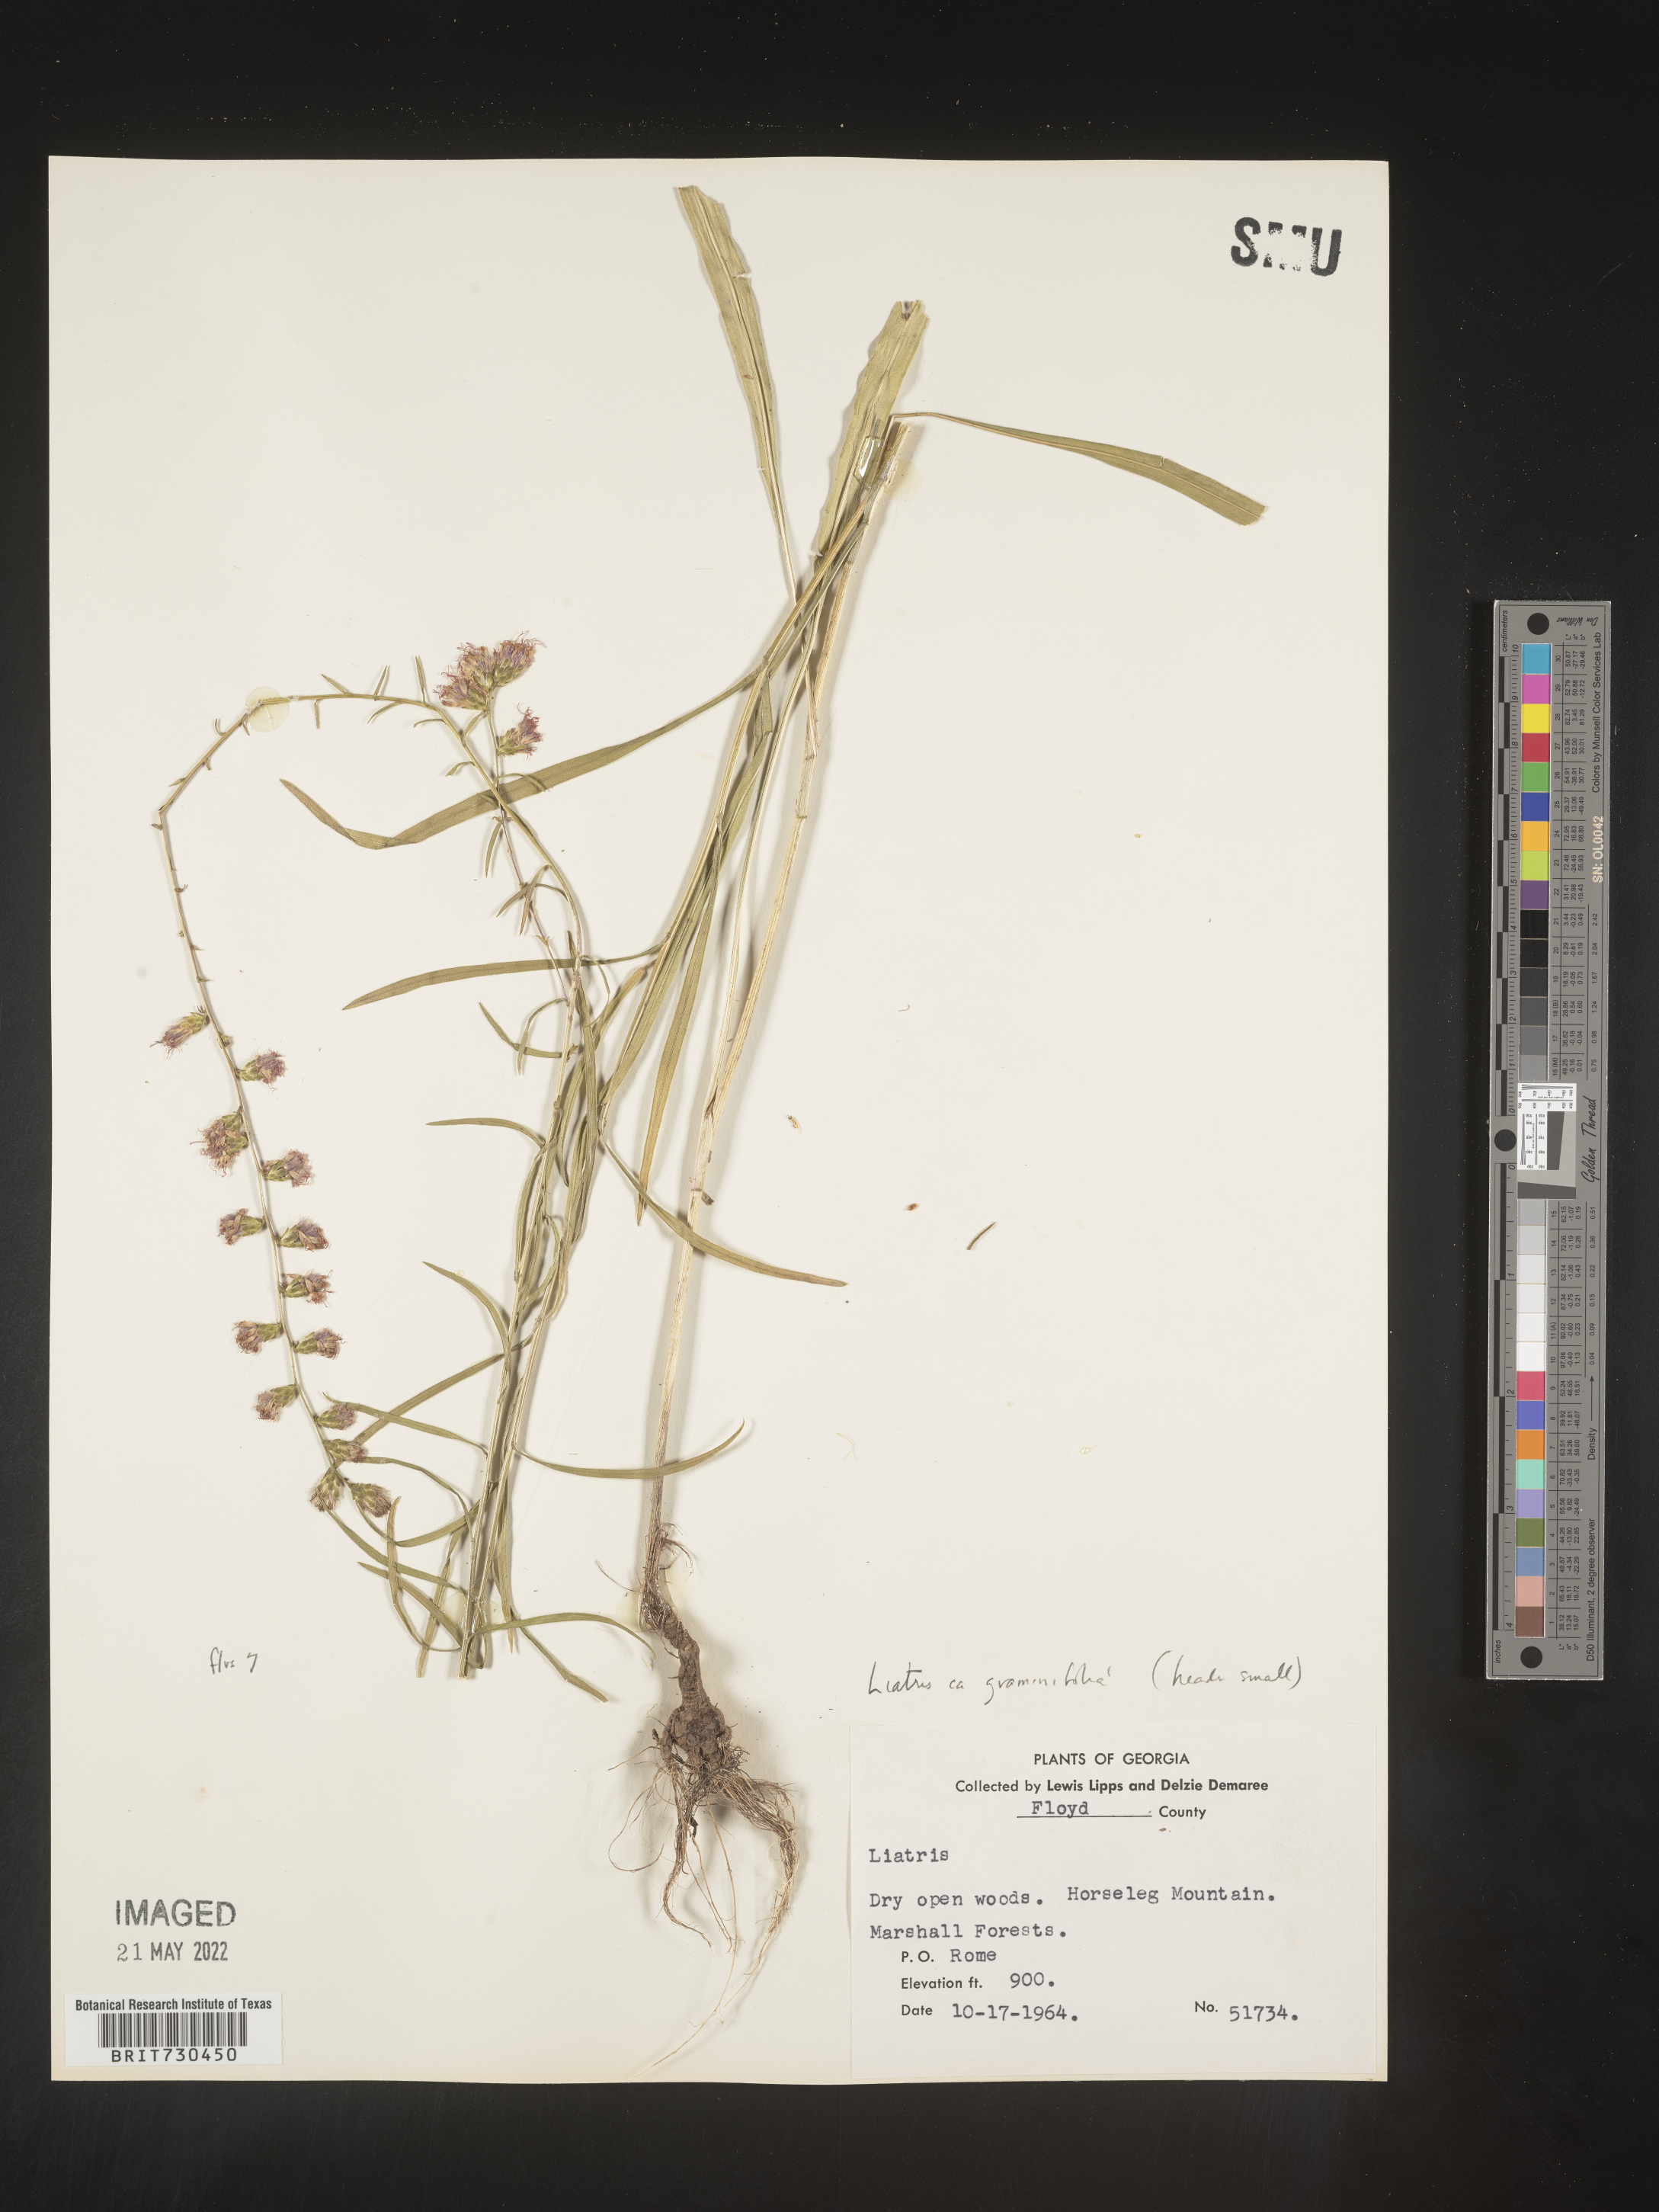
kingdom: Plantae
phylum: Tracheophyta
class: Magnoliopsida
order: Asterales
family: Asteraceae
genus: Liatris
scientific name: Liatris elegantula
